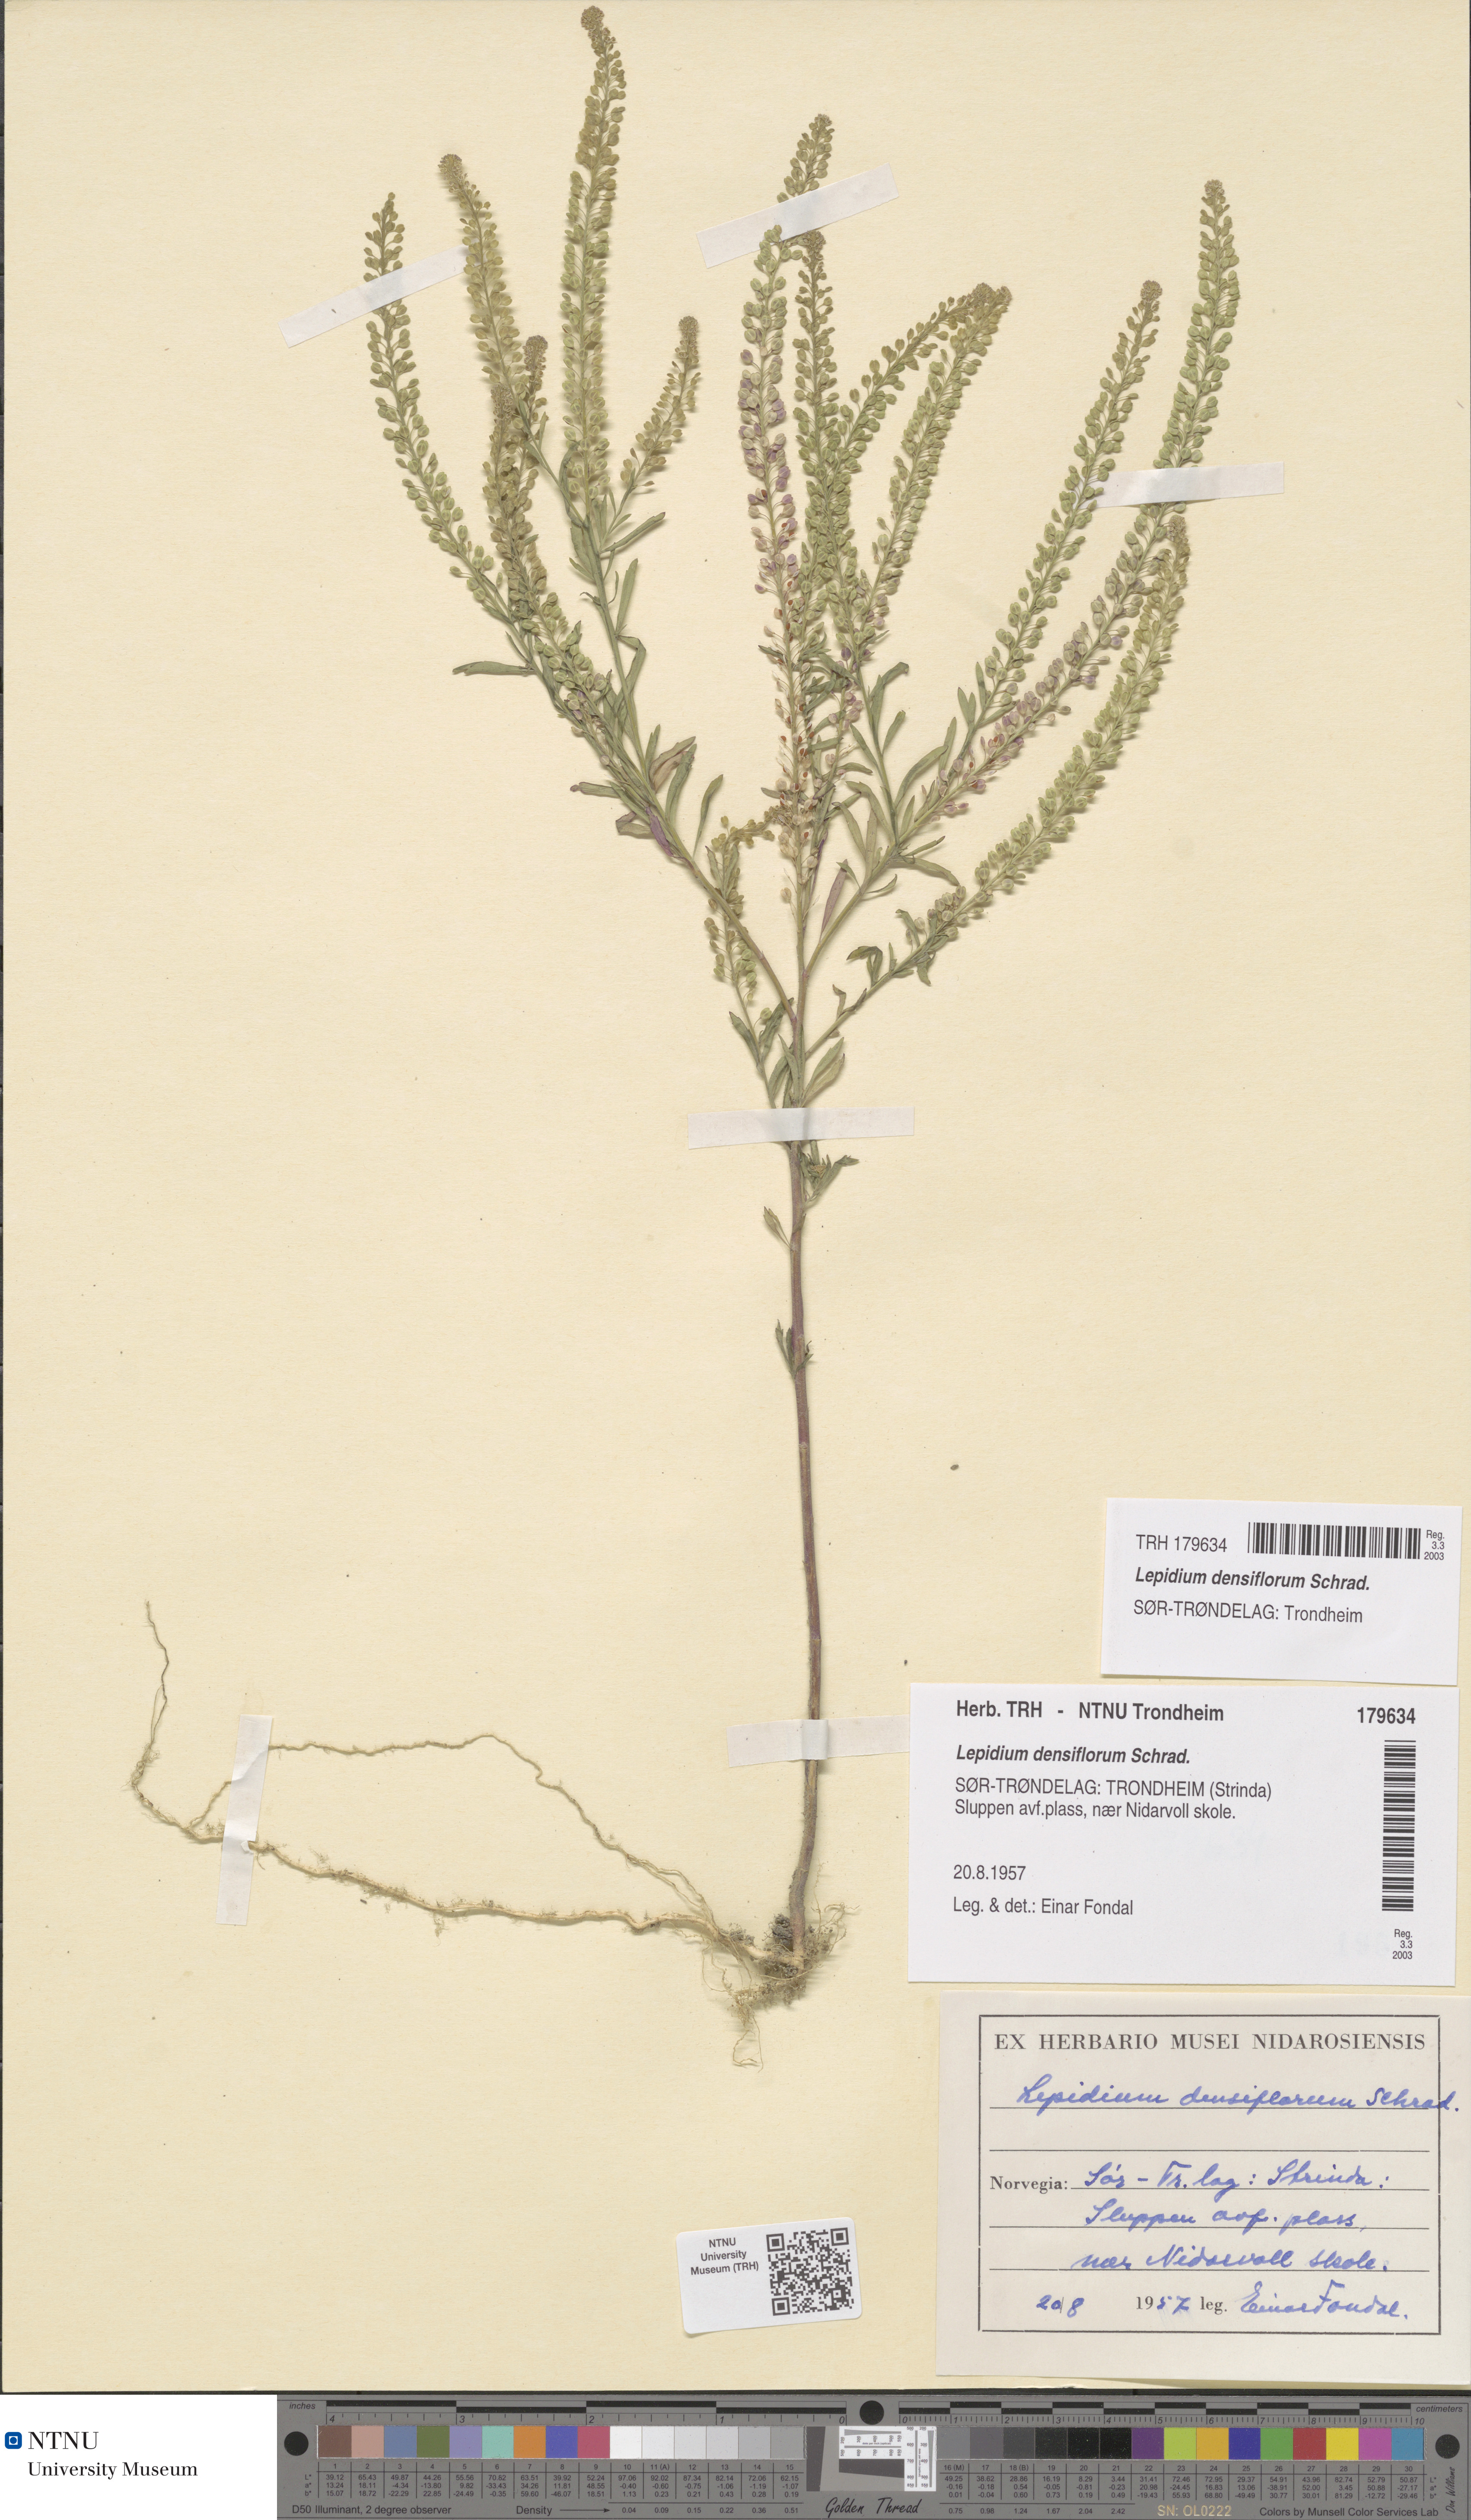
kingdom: Plantae
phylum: Tracheophyta
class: Magnoliopsida
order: Brassicales
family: Brassicaceae
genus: Lepidium
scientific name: Lepidium densiflorum
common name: Miner's pepperwort
